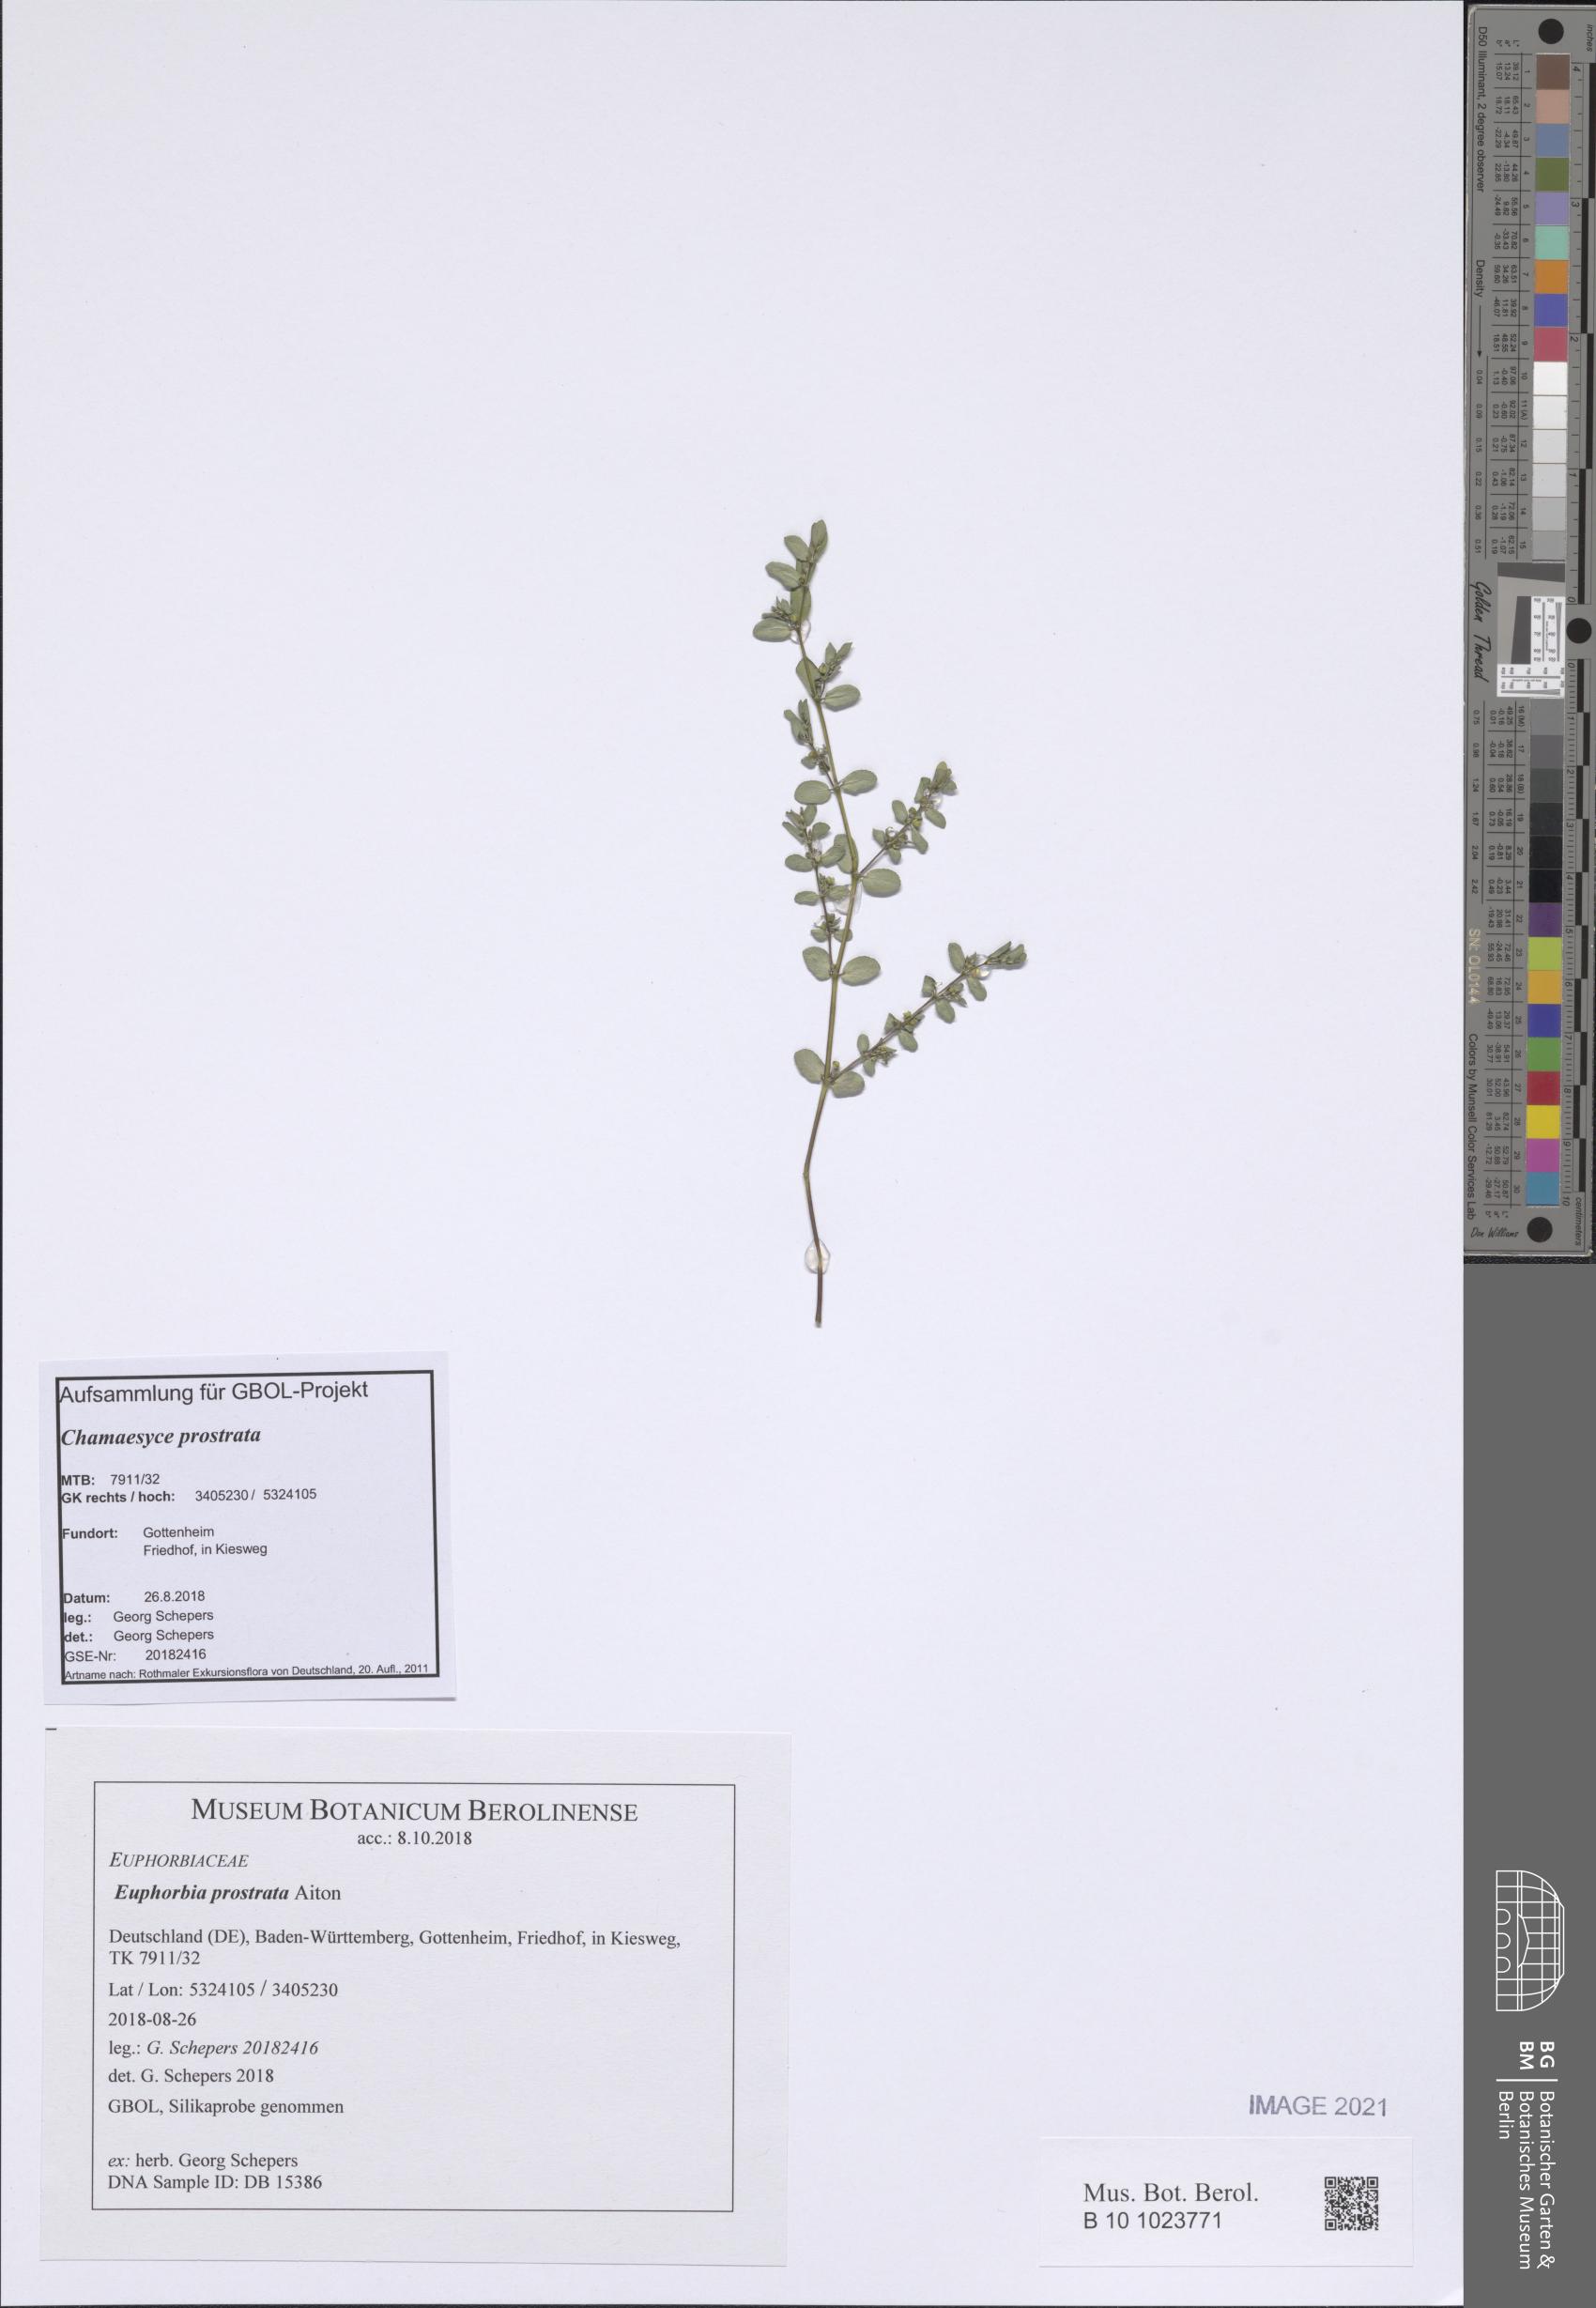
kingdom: Plantae
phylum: Tracheophyta
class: Magnoliopsida
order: Malpighiales
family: Euphorbiaceae
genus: Euphorbia
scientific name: Euphorbia prostrata
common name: Prostrate sandmat
